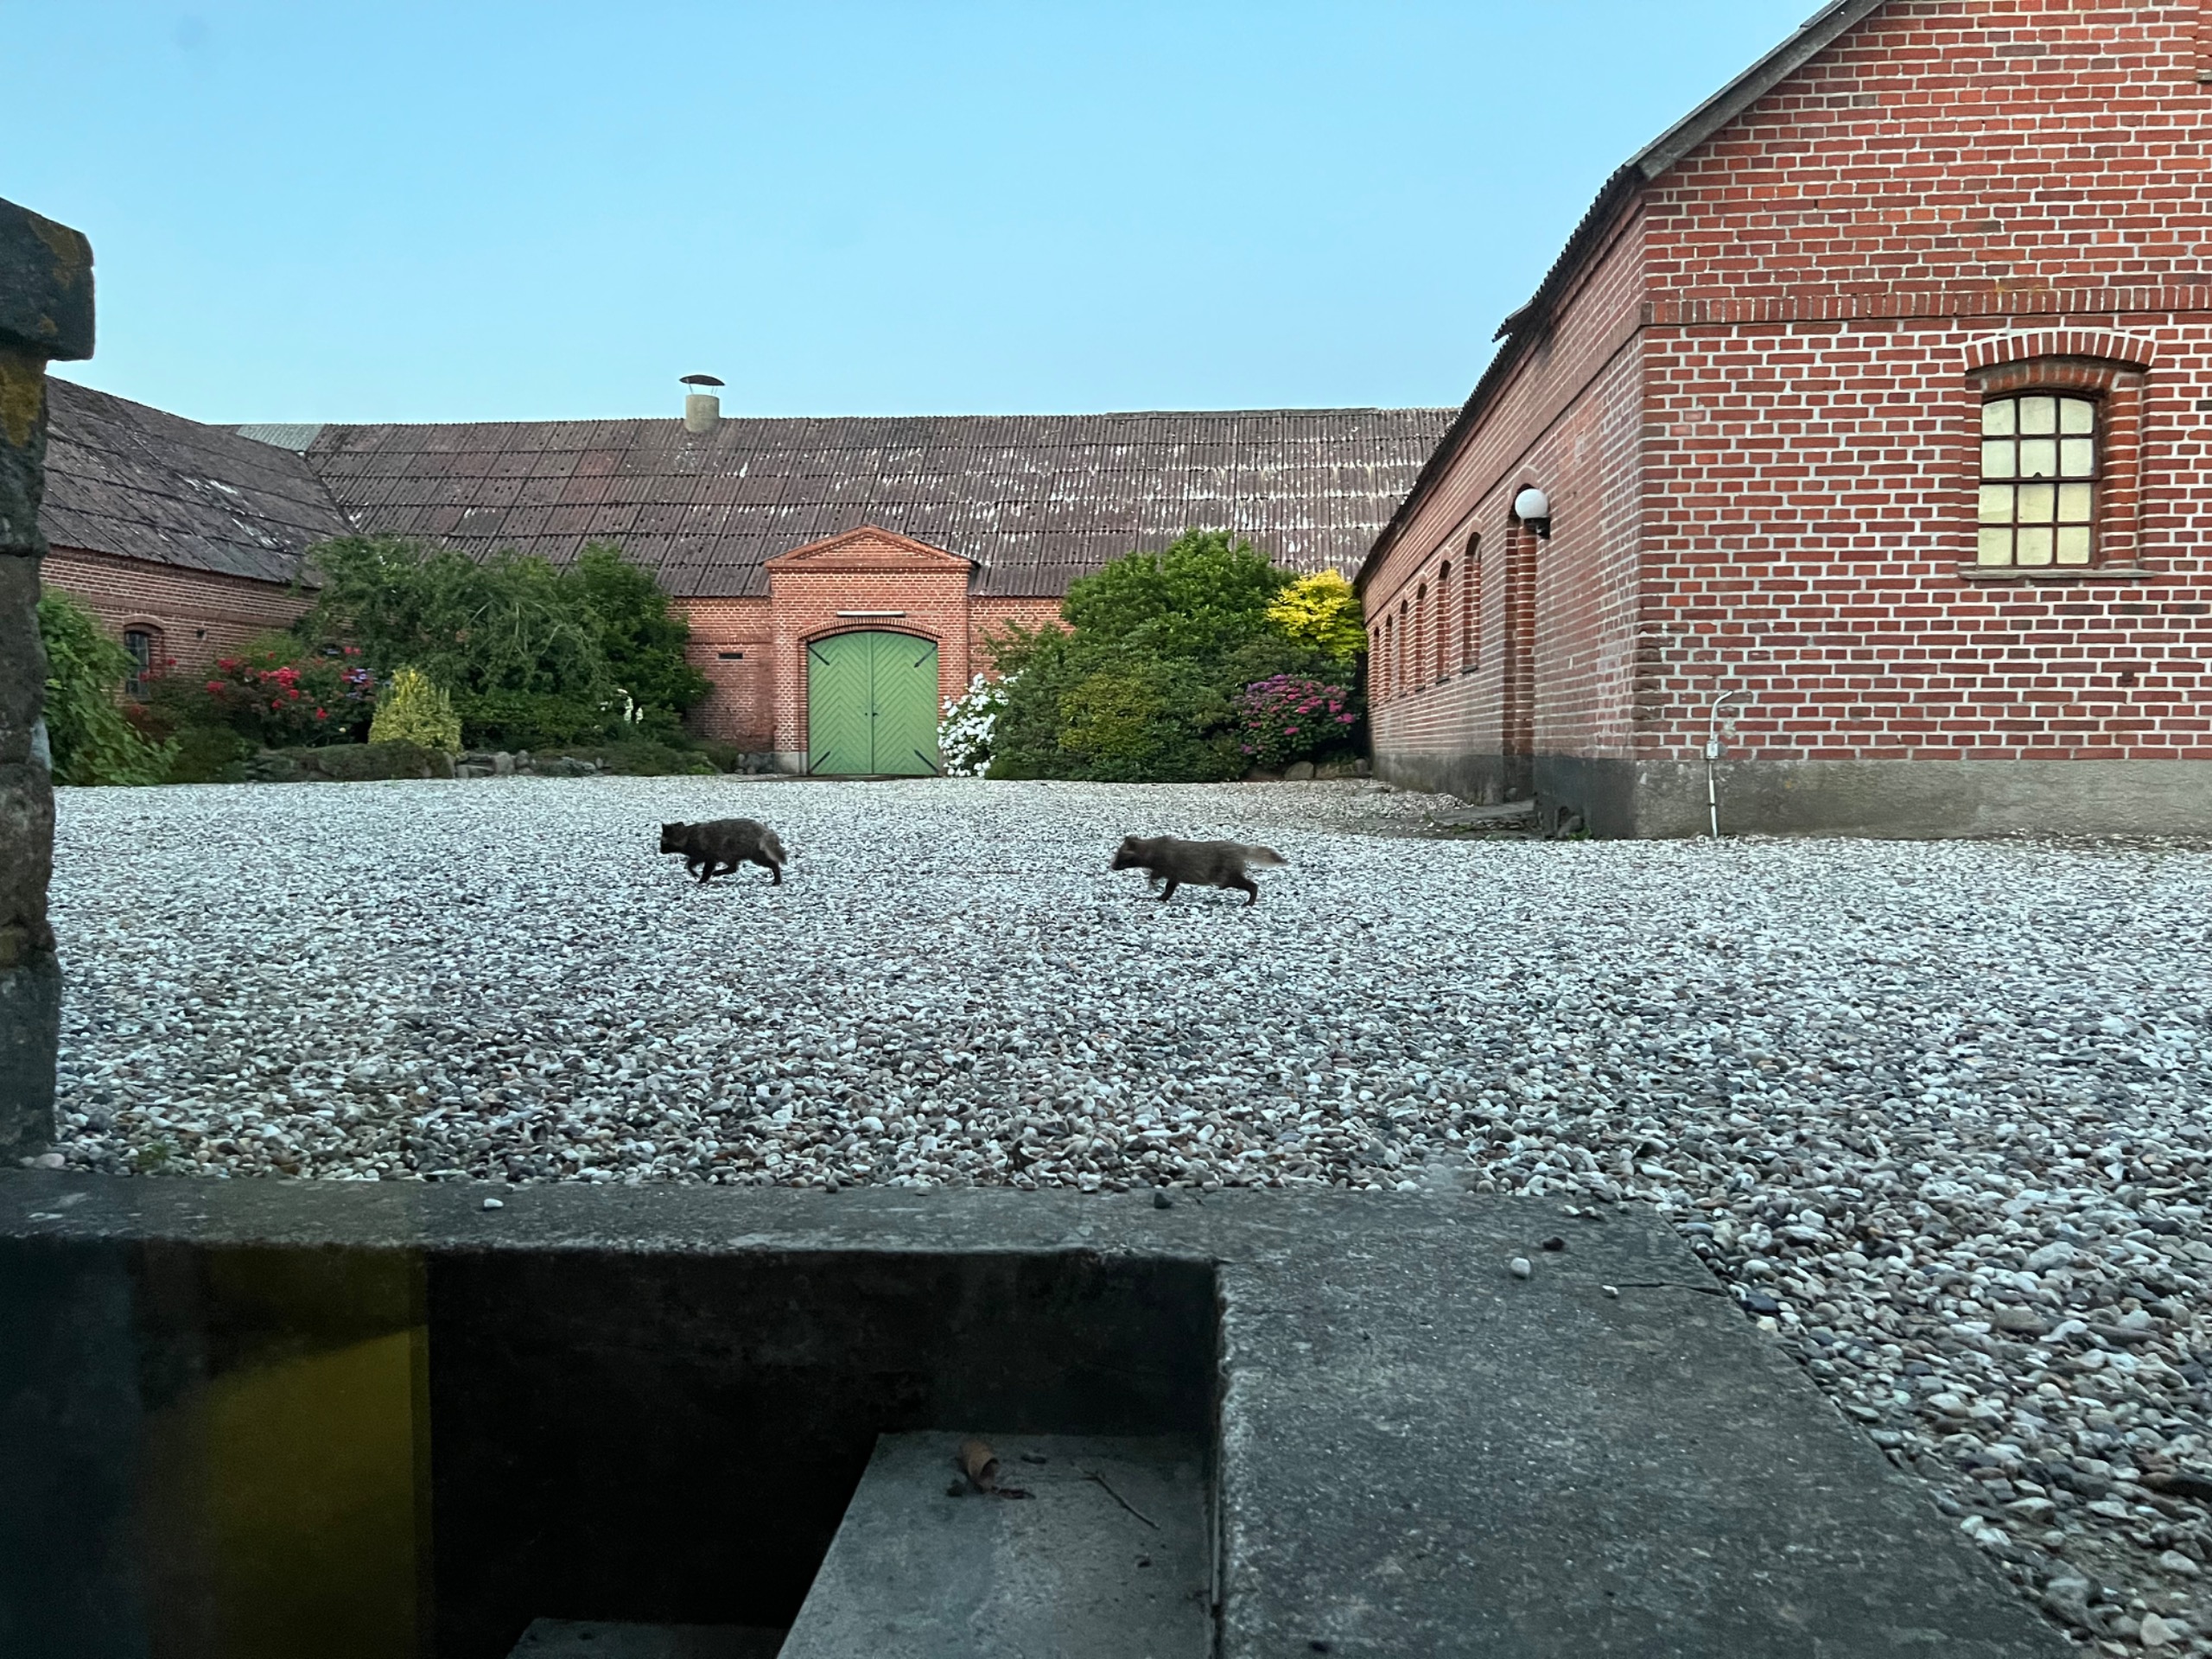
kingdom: Animalia
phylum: Chordata
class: Mammalia
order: Carnivora
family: Canidae
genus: Nyctereutes
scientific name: Nyctereutes procyonoides
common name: Mårhund
